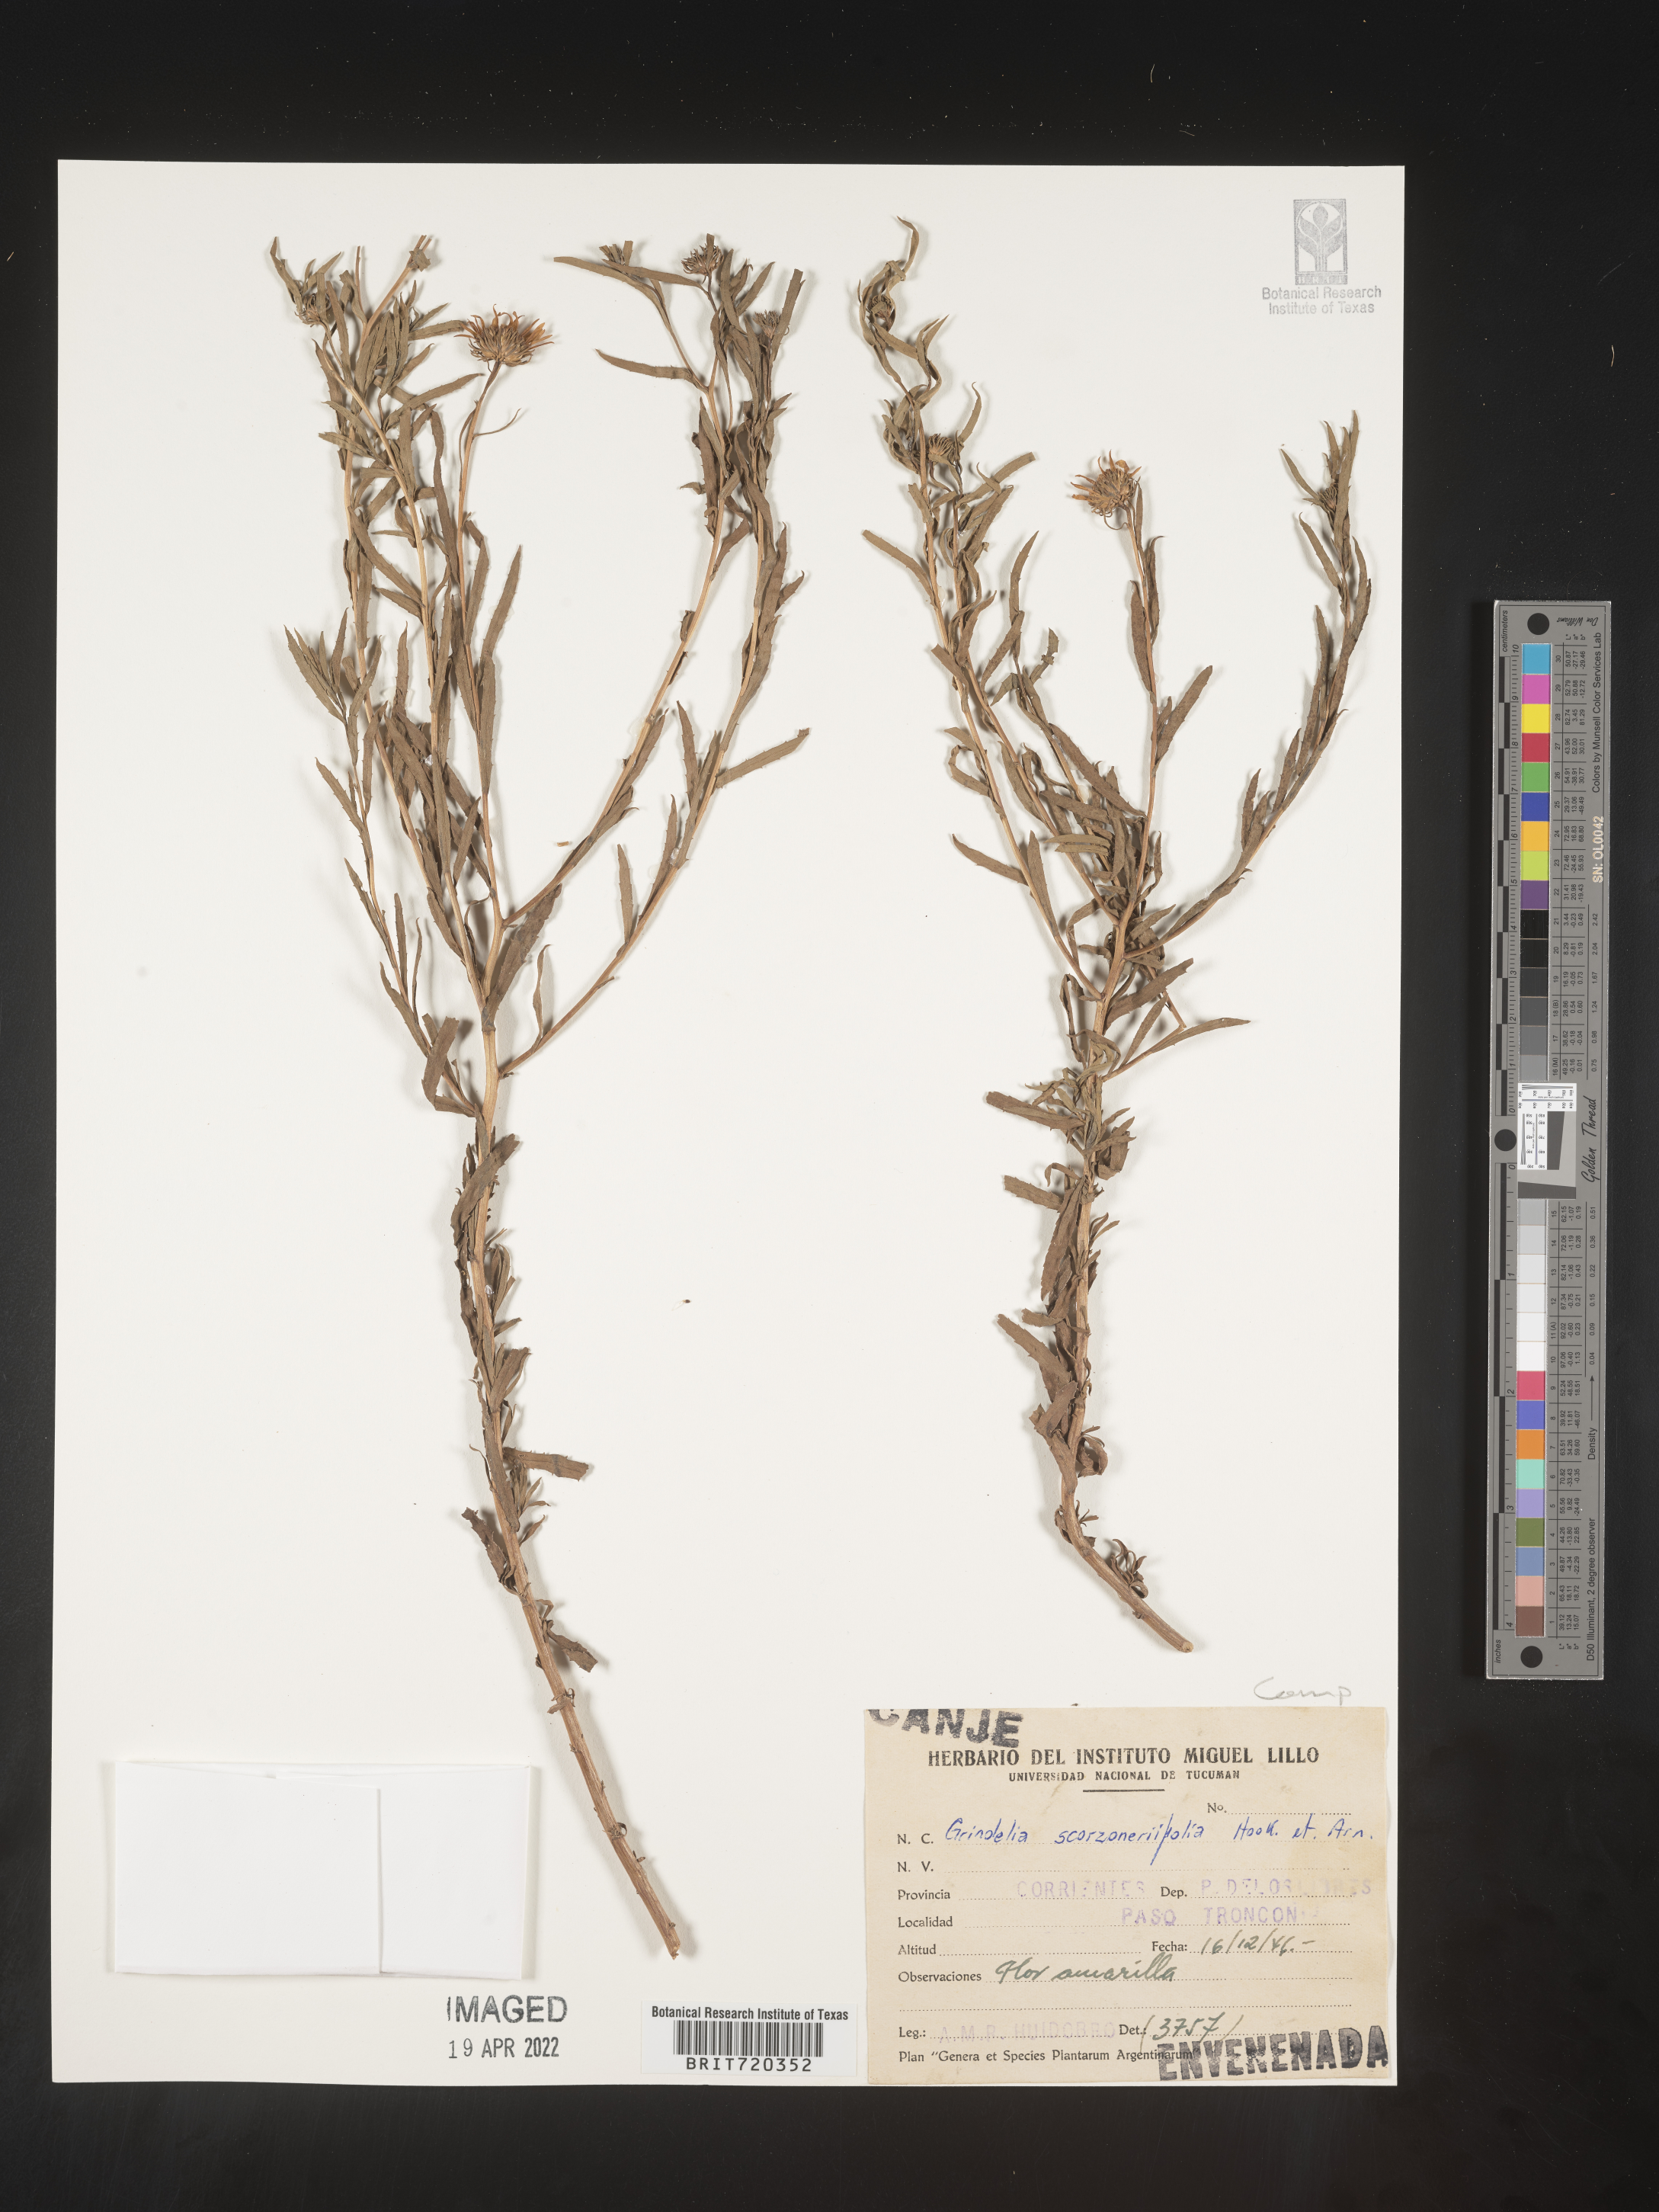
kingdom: Plantae
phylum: Tracheophyta
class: Magnoliopsida
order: Asterales
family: Asteraceae
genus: Grindelia
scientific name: Grindelia
